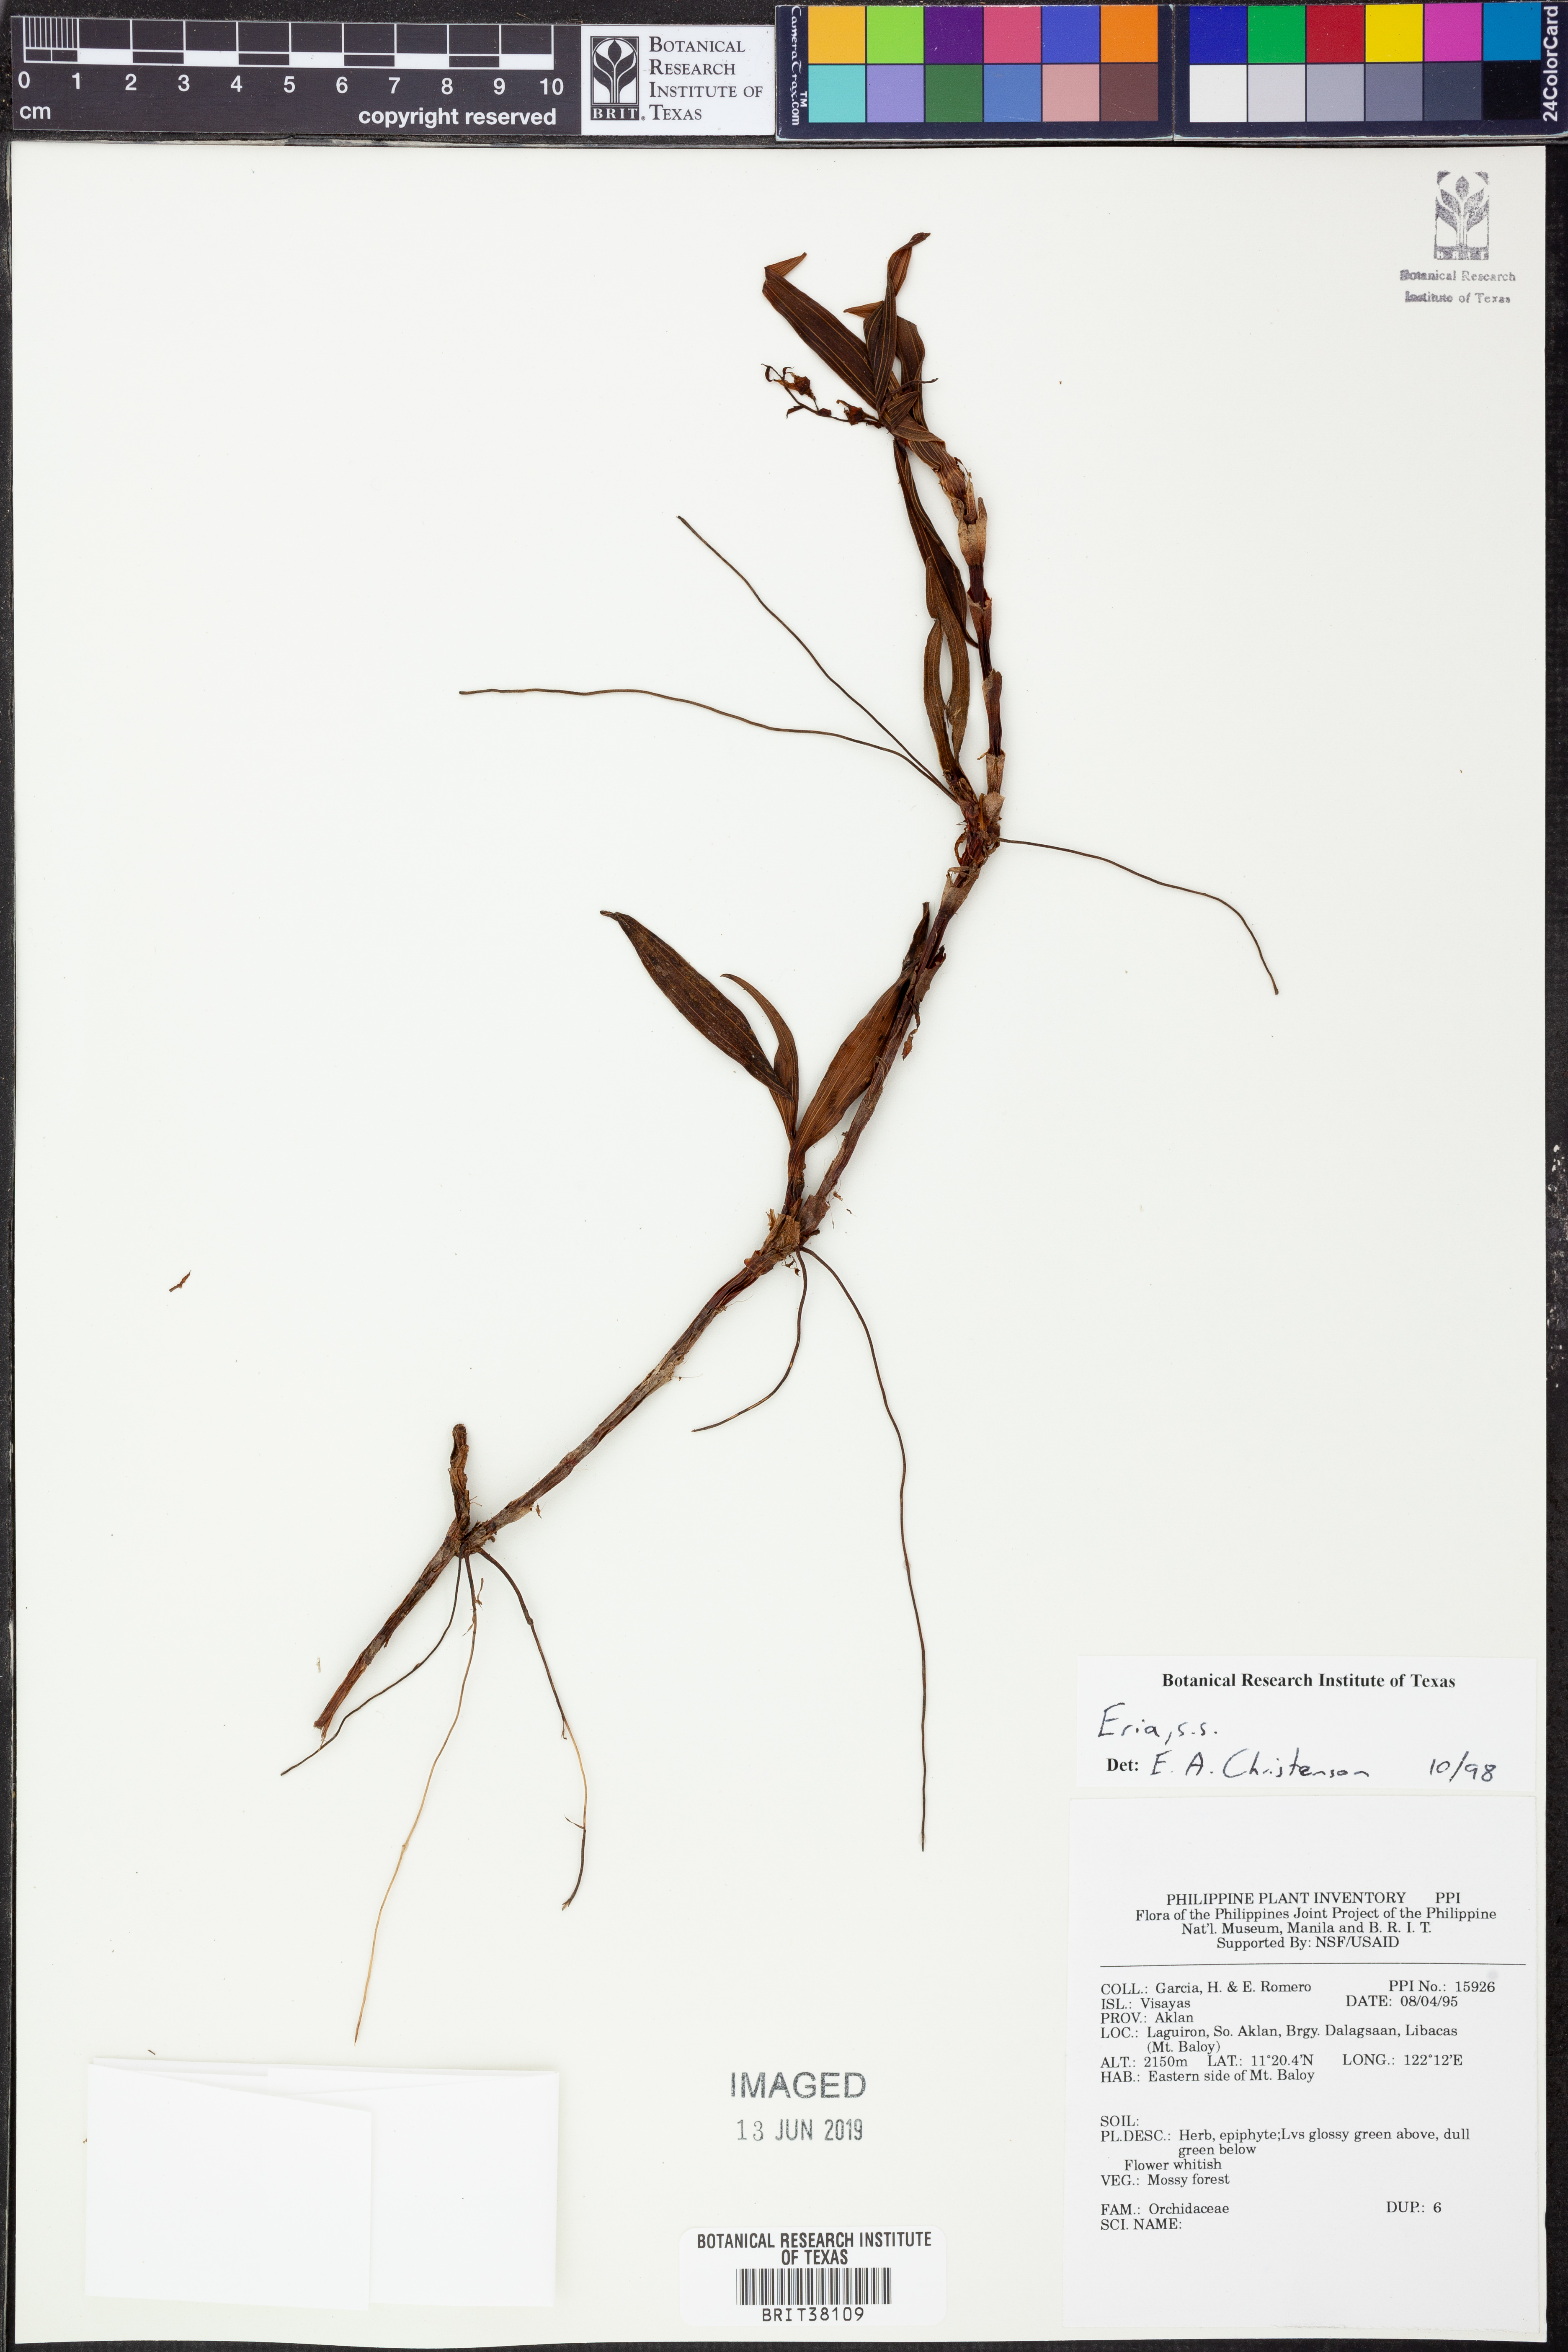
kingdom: Plantae
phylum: Tracheophyta
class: Liliopsida
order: Asparagales
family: Orchidaceae
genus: Eria
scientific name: Eria
